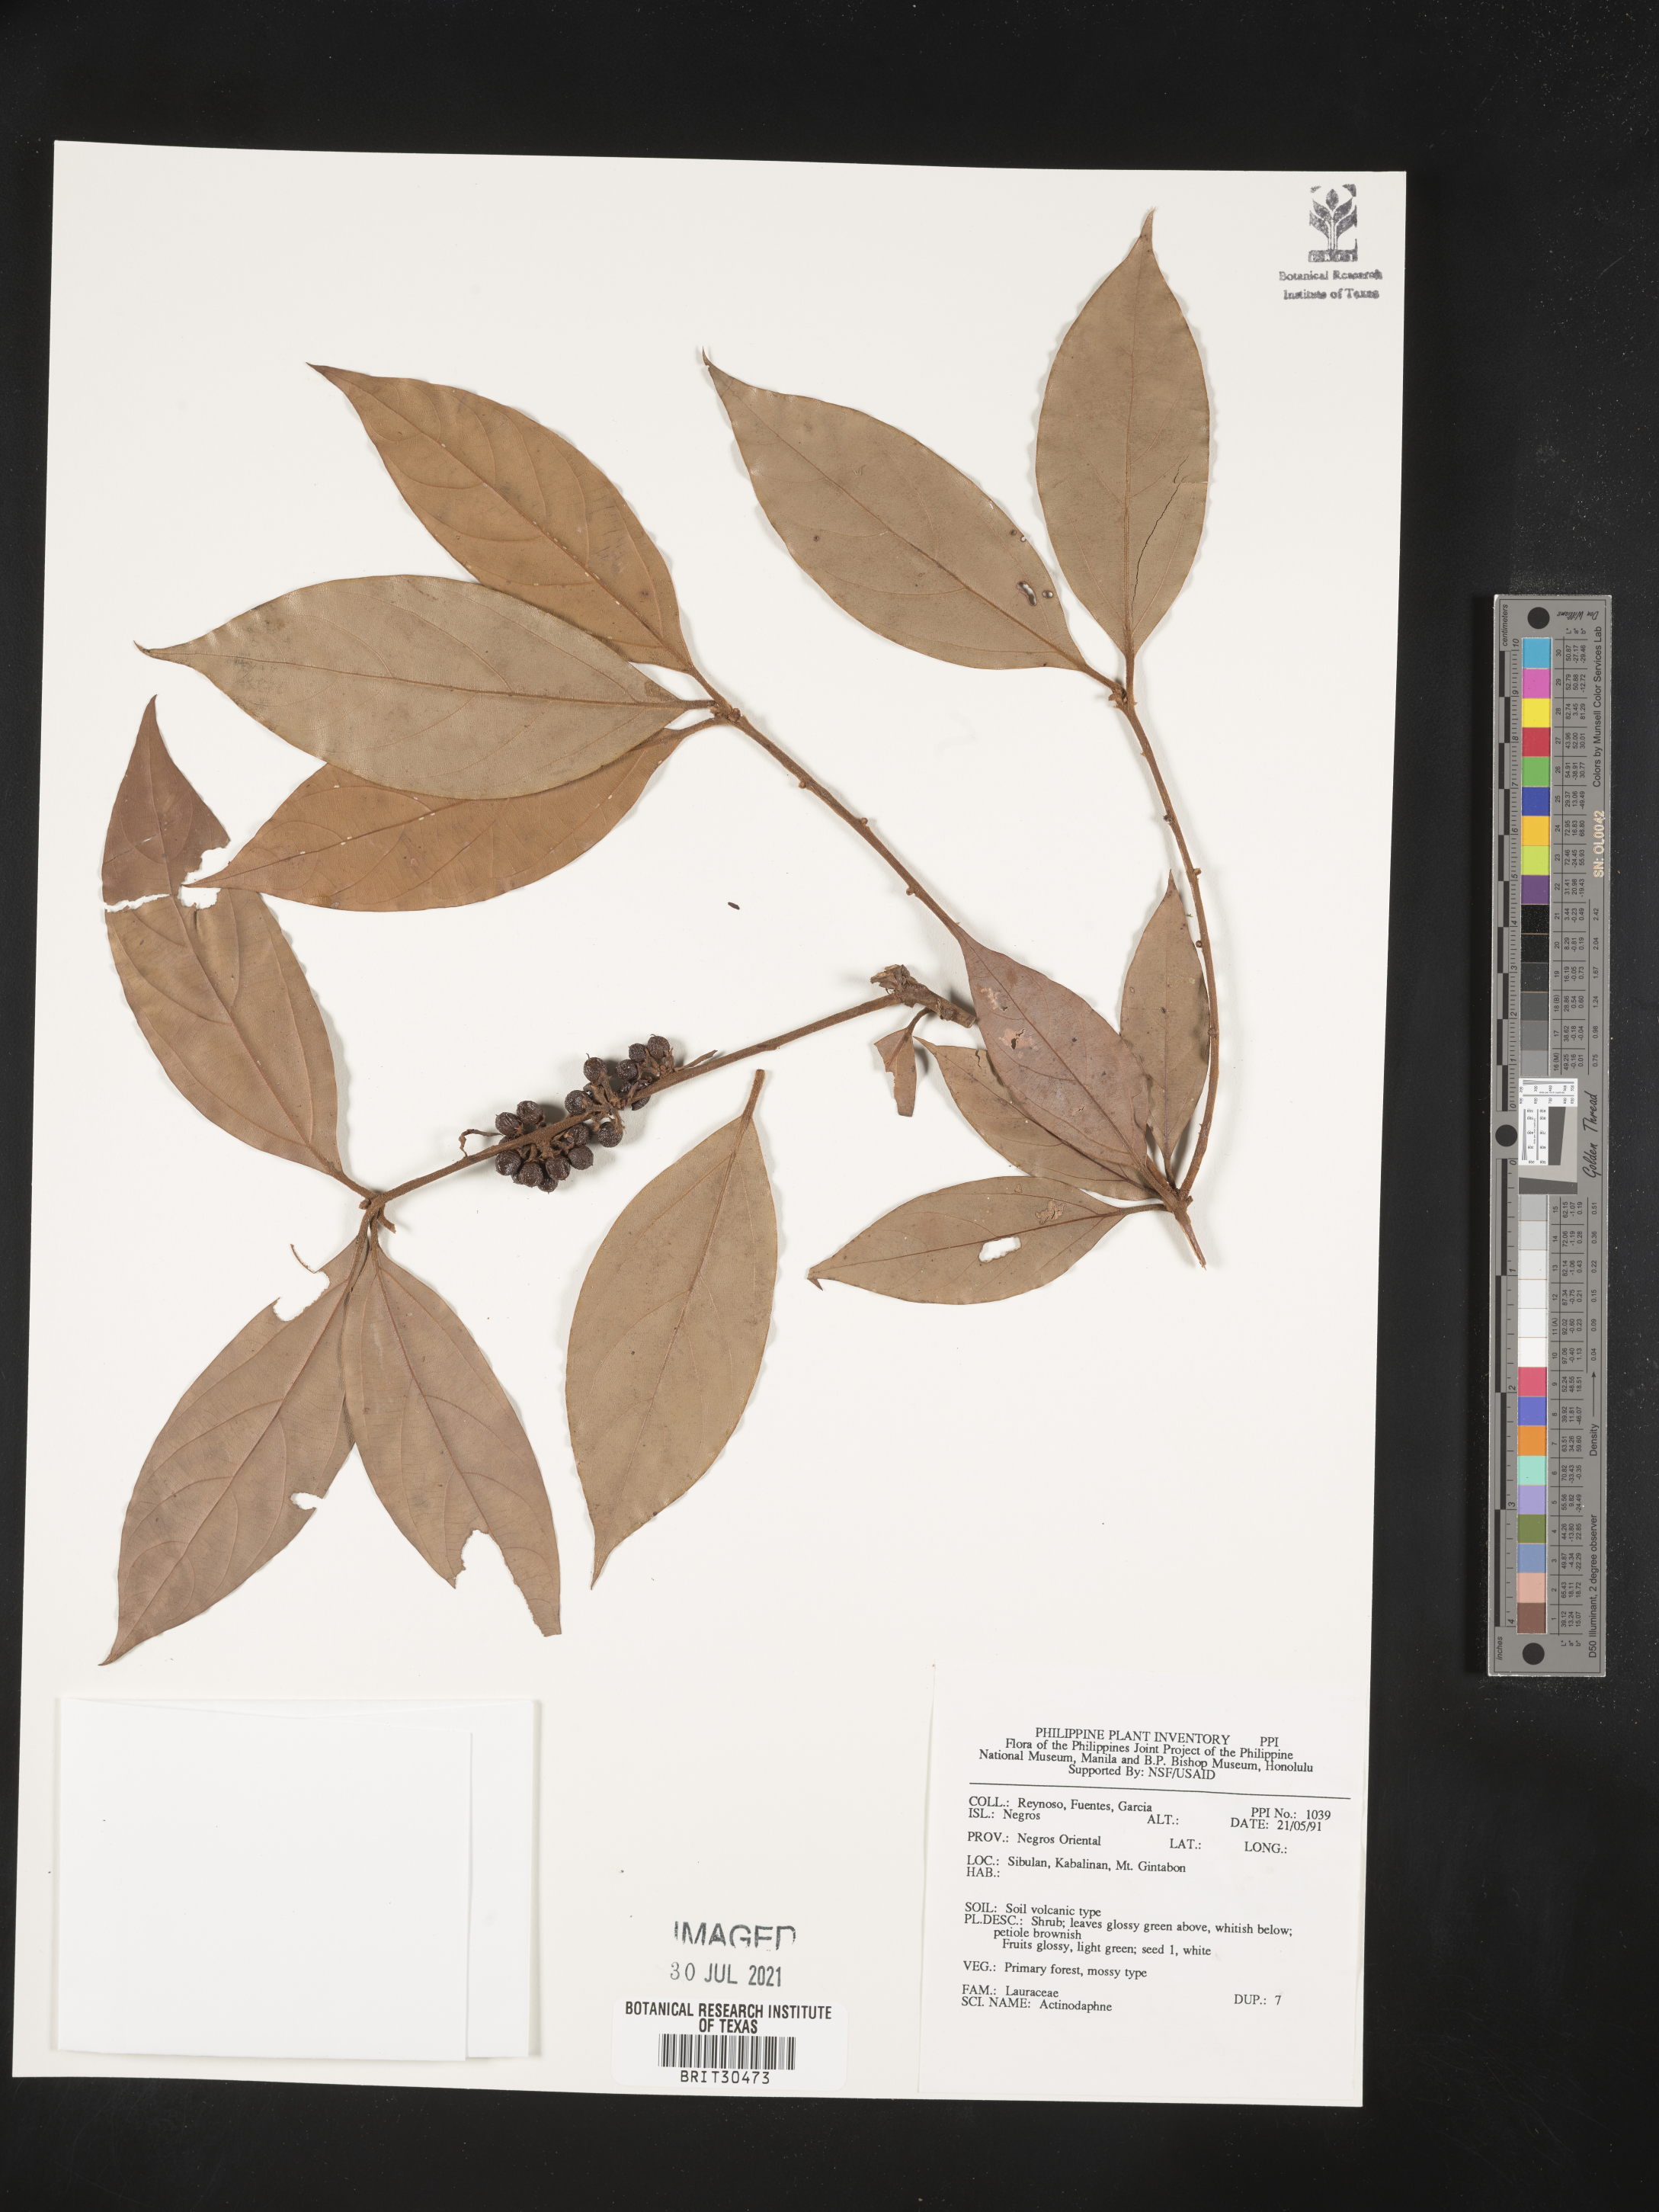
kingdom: Plantae
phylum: Tracheophyta
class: Magnoliopsida
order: Laurales
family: Lauraceae
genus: Actinodaphne
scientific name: Actinodaphne
